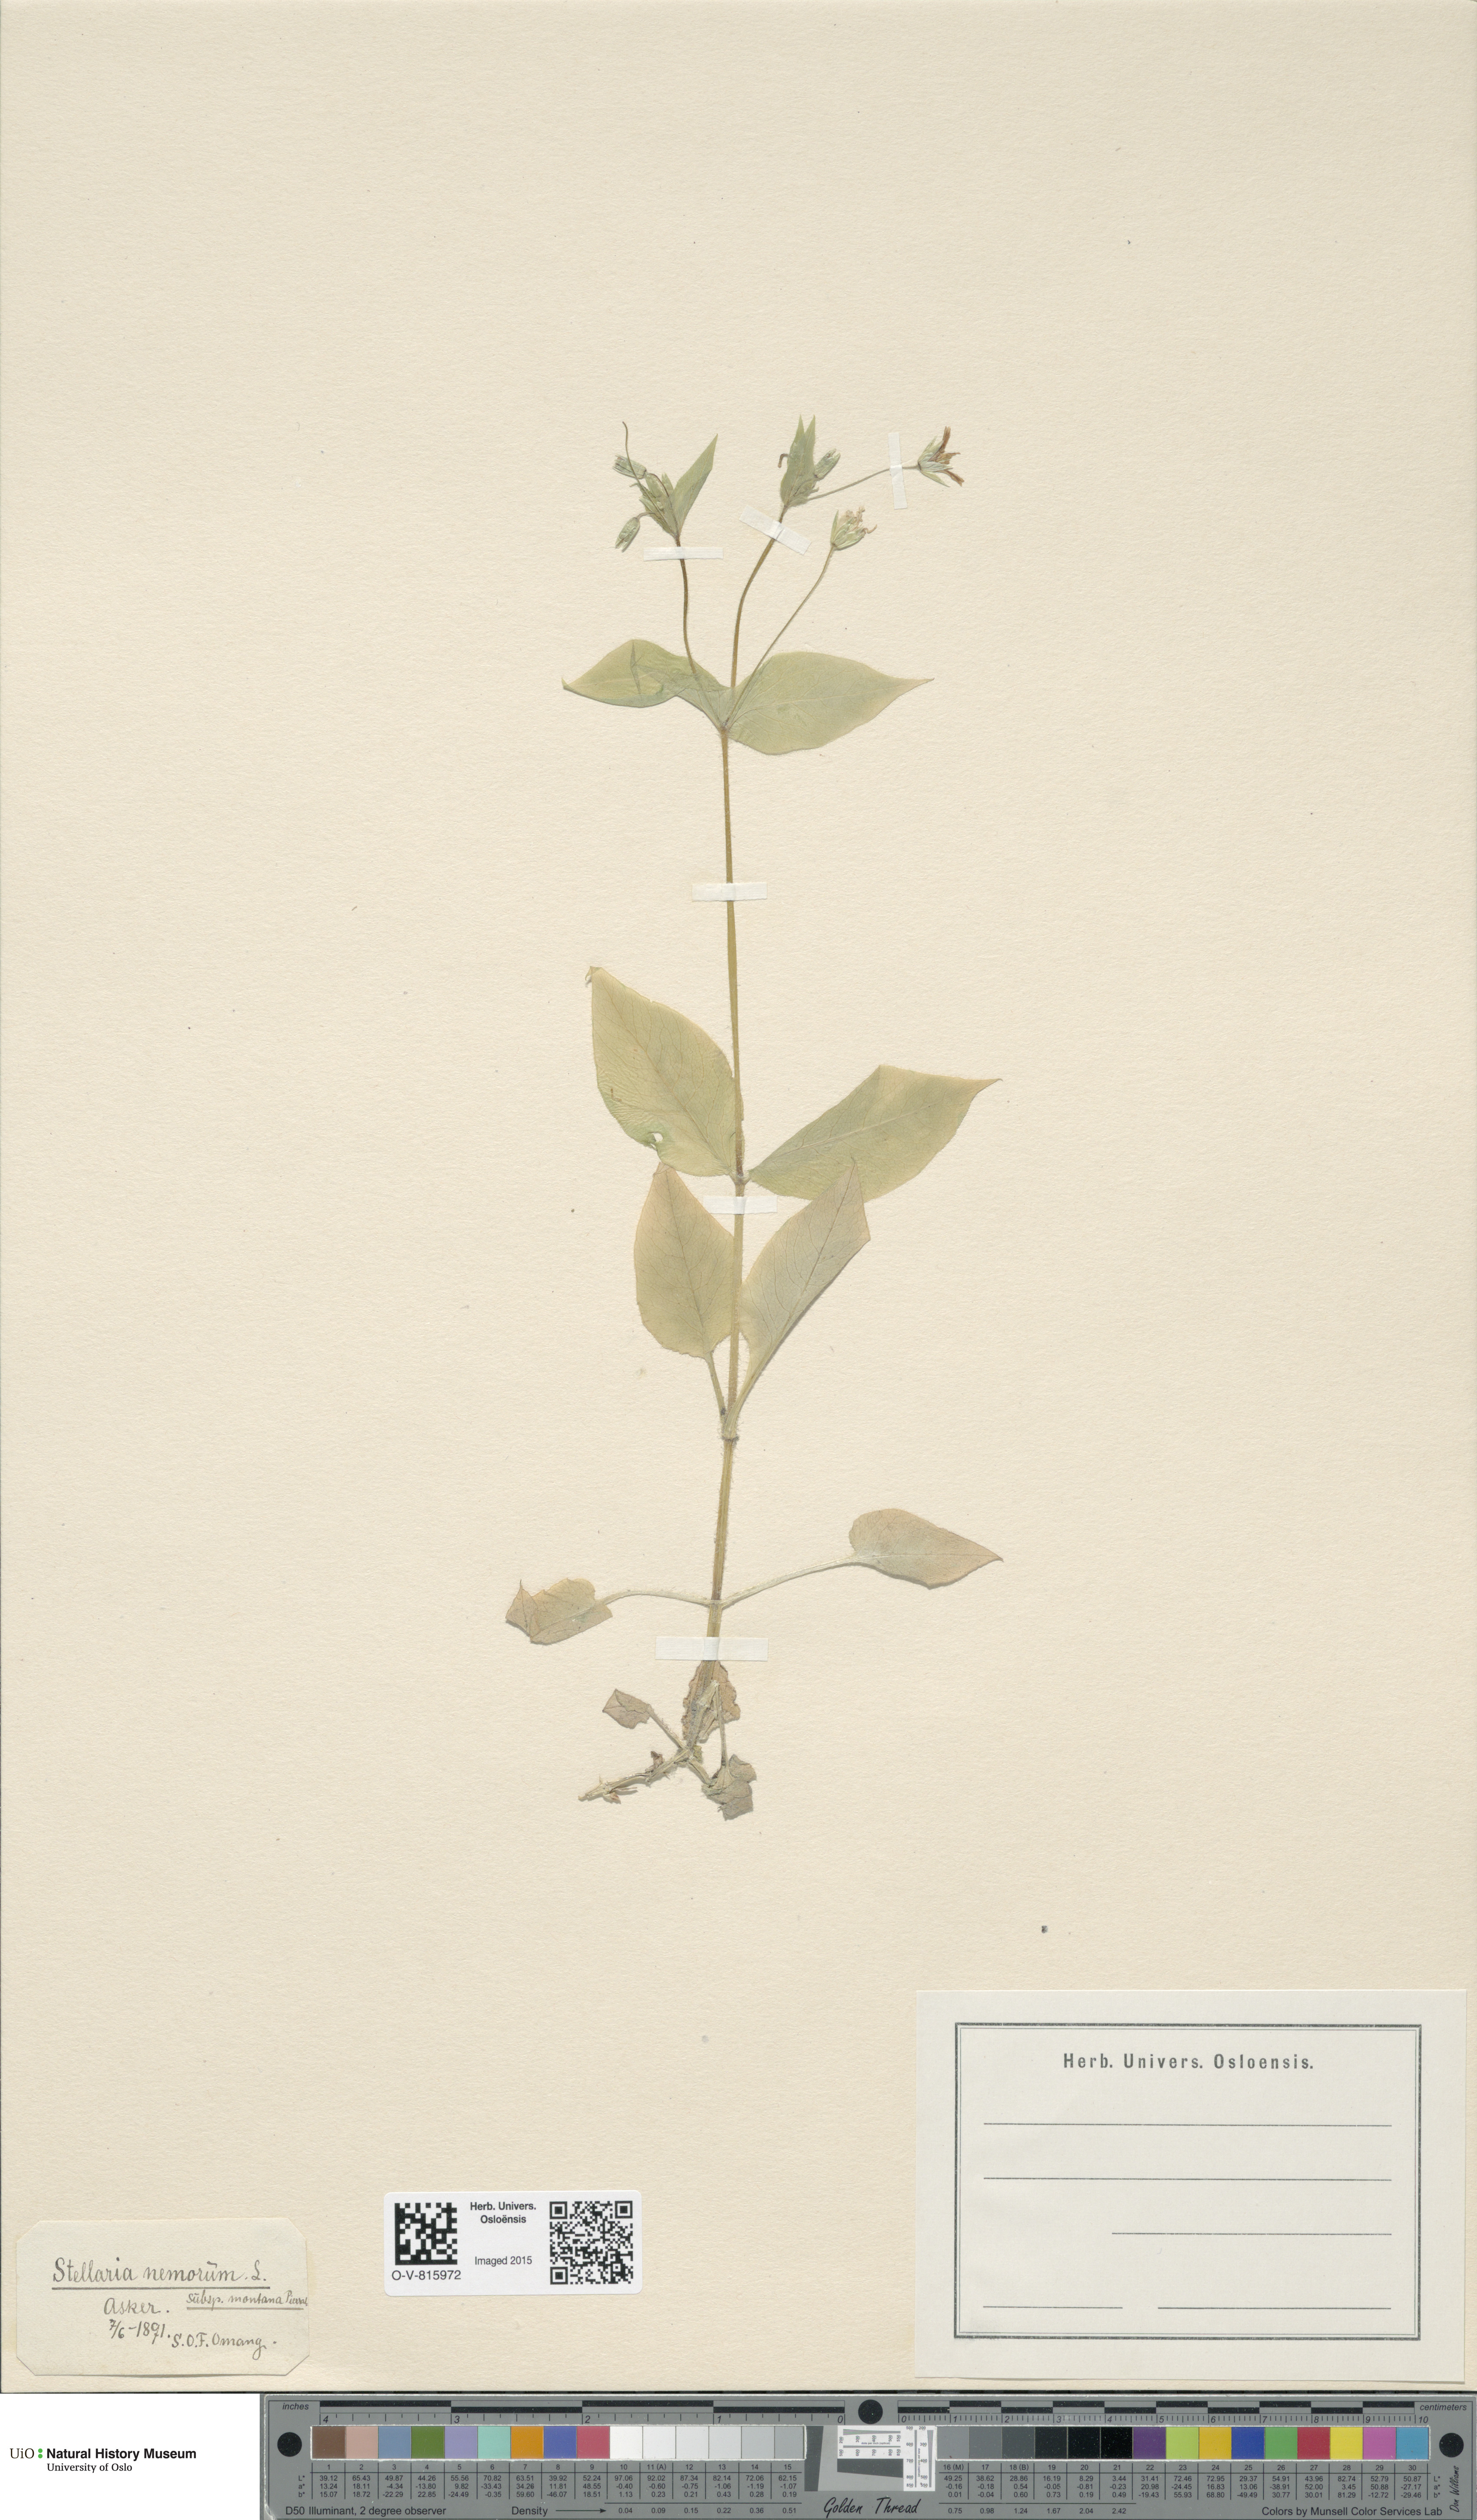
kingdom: Plantae
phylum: Tracheophyta
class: Magnoliopsida
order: Caryophyllales
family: Caryophyllaceae
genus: Stellaria
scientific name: Stellaria nemorum
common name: Wood stitchwort
